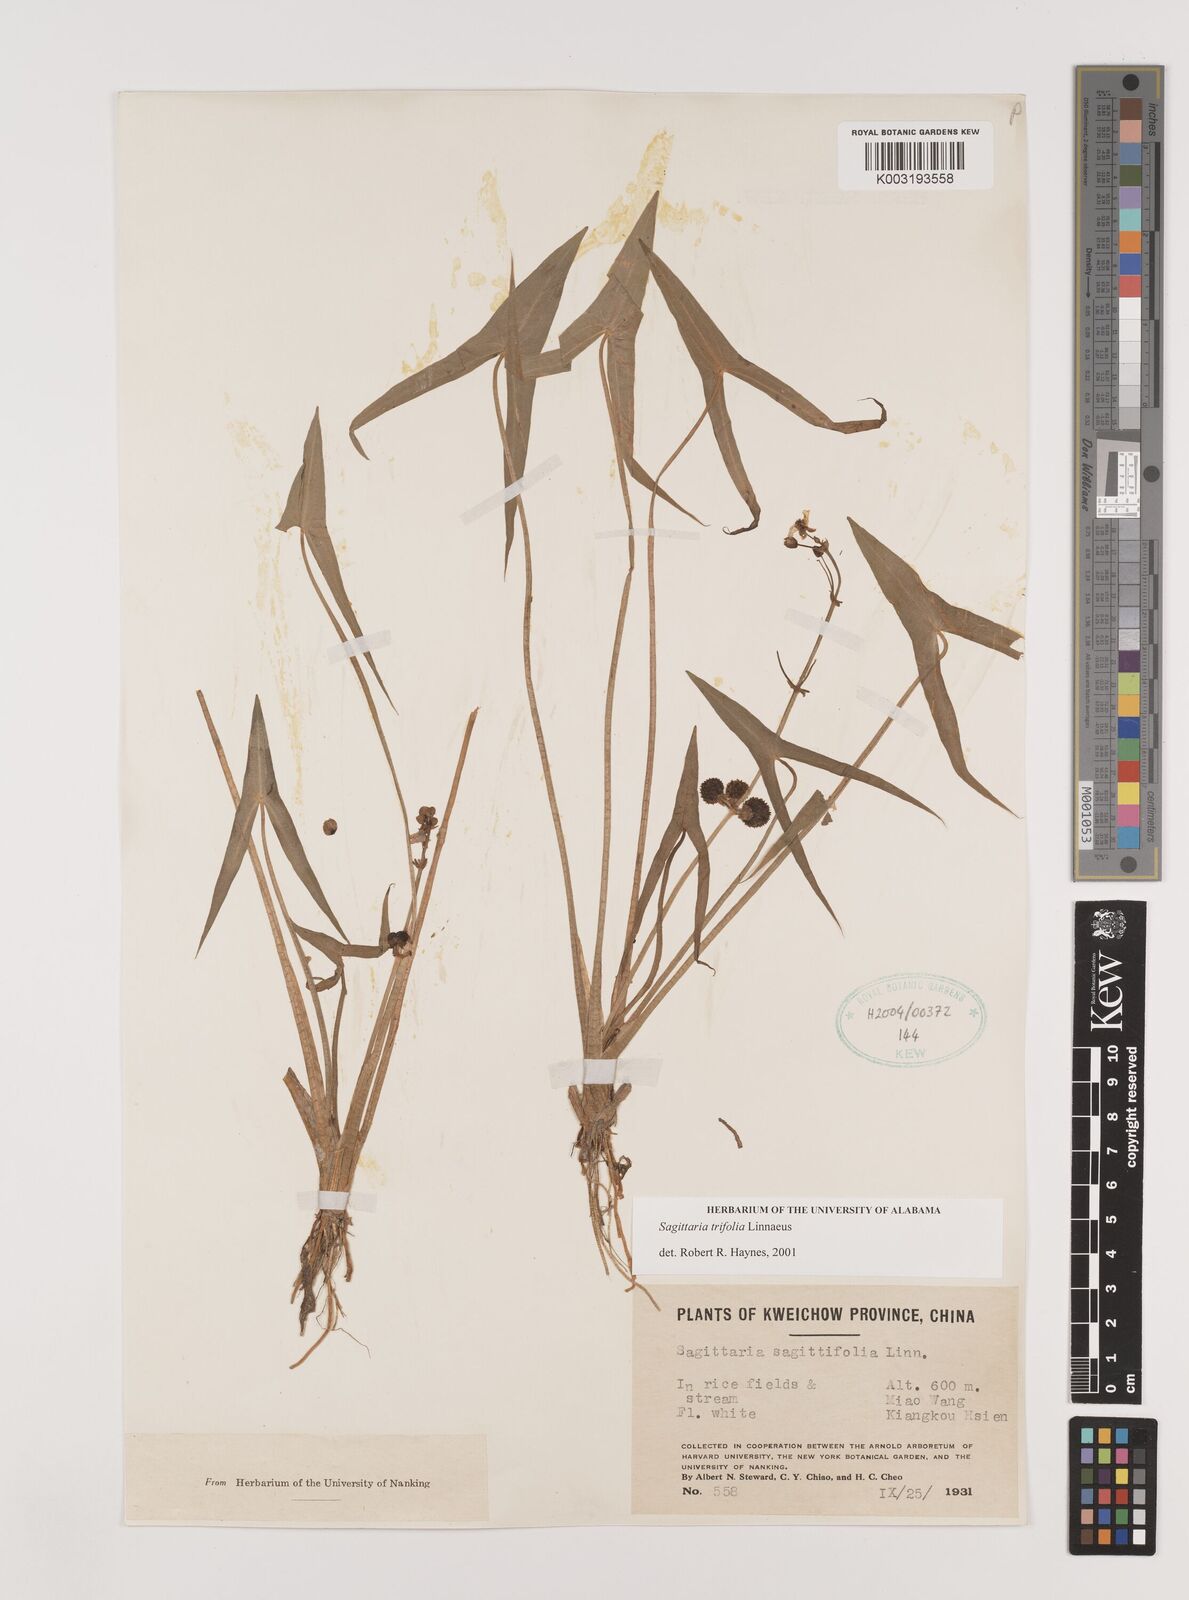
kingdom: Plantae
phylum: Tracheophyta
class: Liliopsida
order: Alismatales
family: Alismataceae
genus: Sagittaria
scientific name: Sagittaria trifolia
